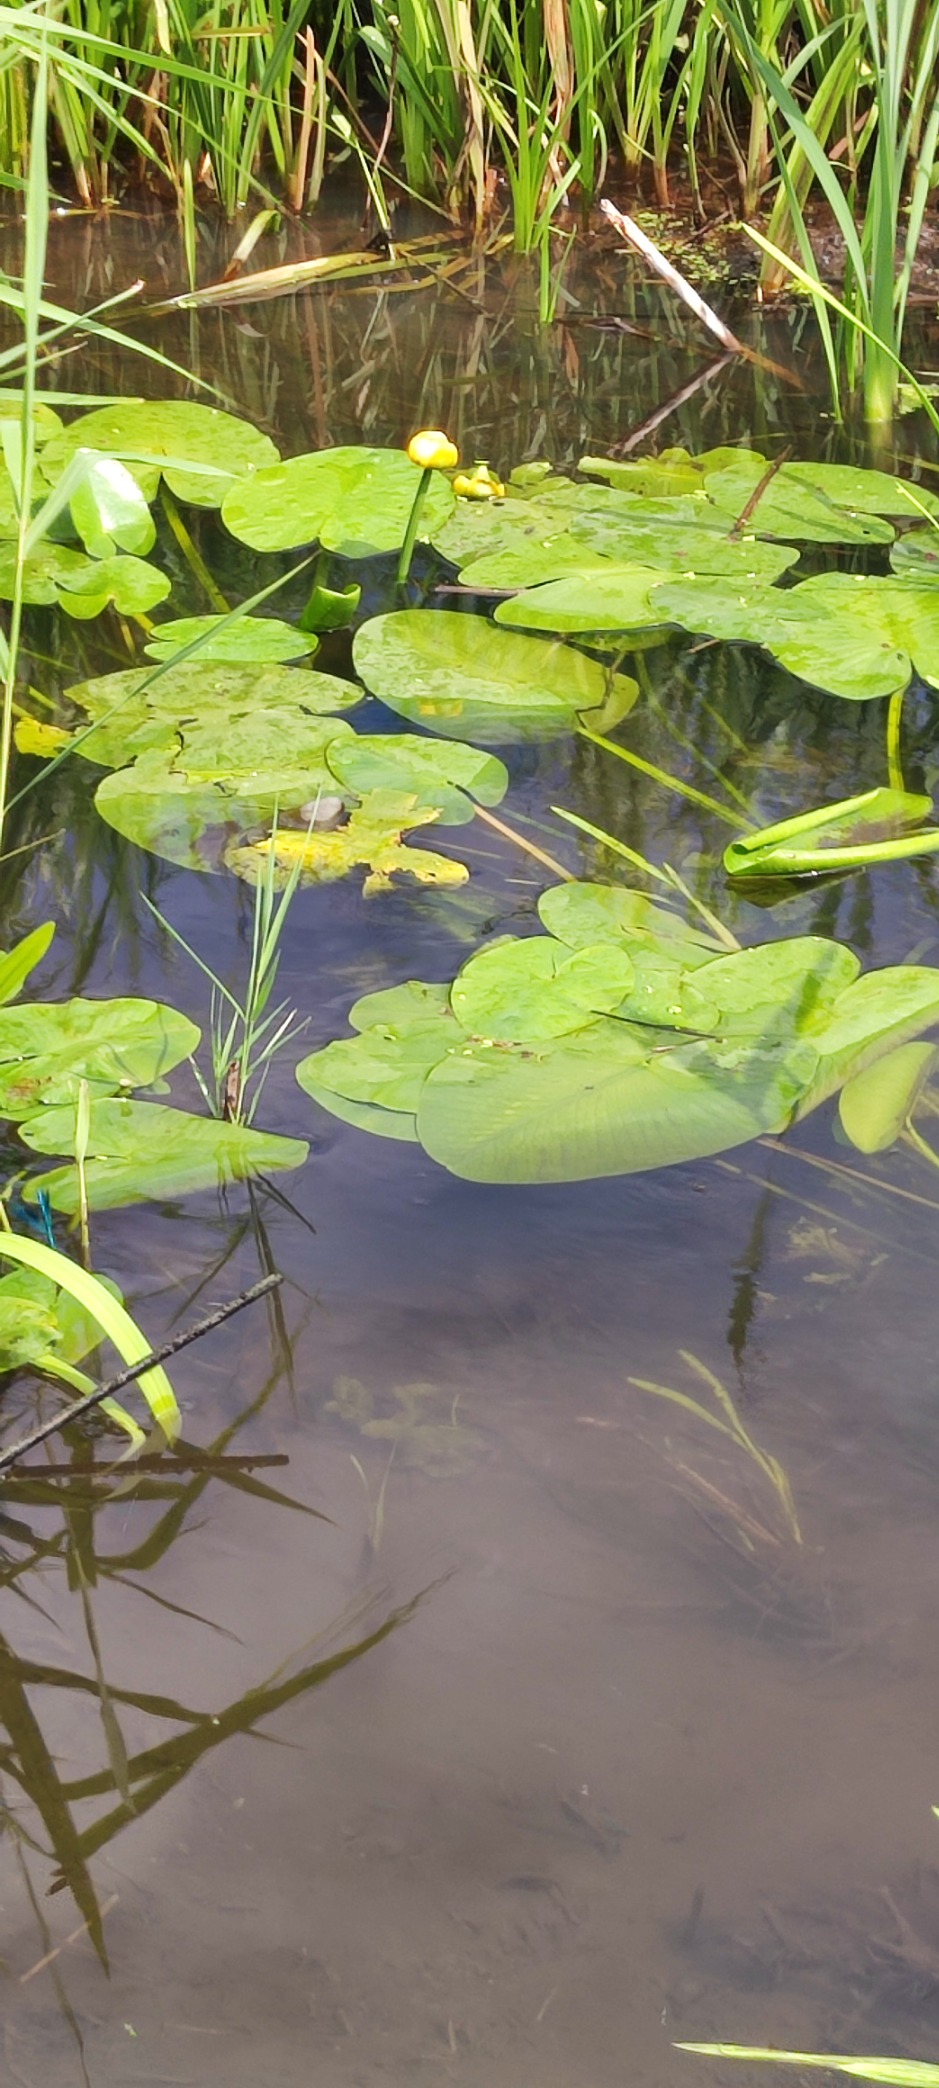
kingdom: Plantae
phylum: Tracheophyta
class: Magnoliopsida
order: Nymphaeales
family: Nymphaeaceae
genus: Nuphar
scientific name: Nuphar lutea
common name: Gul åkande
